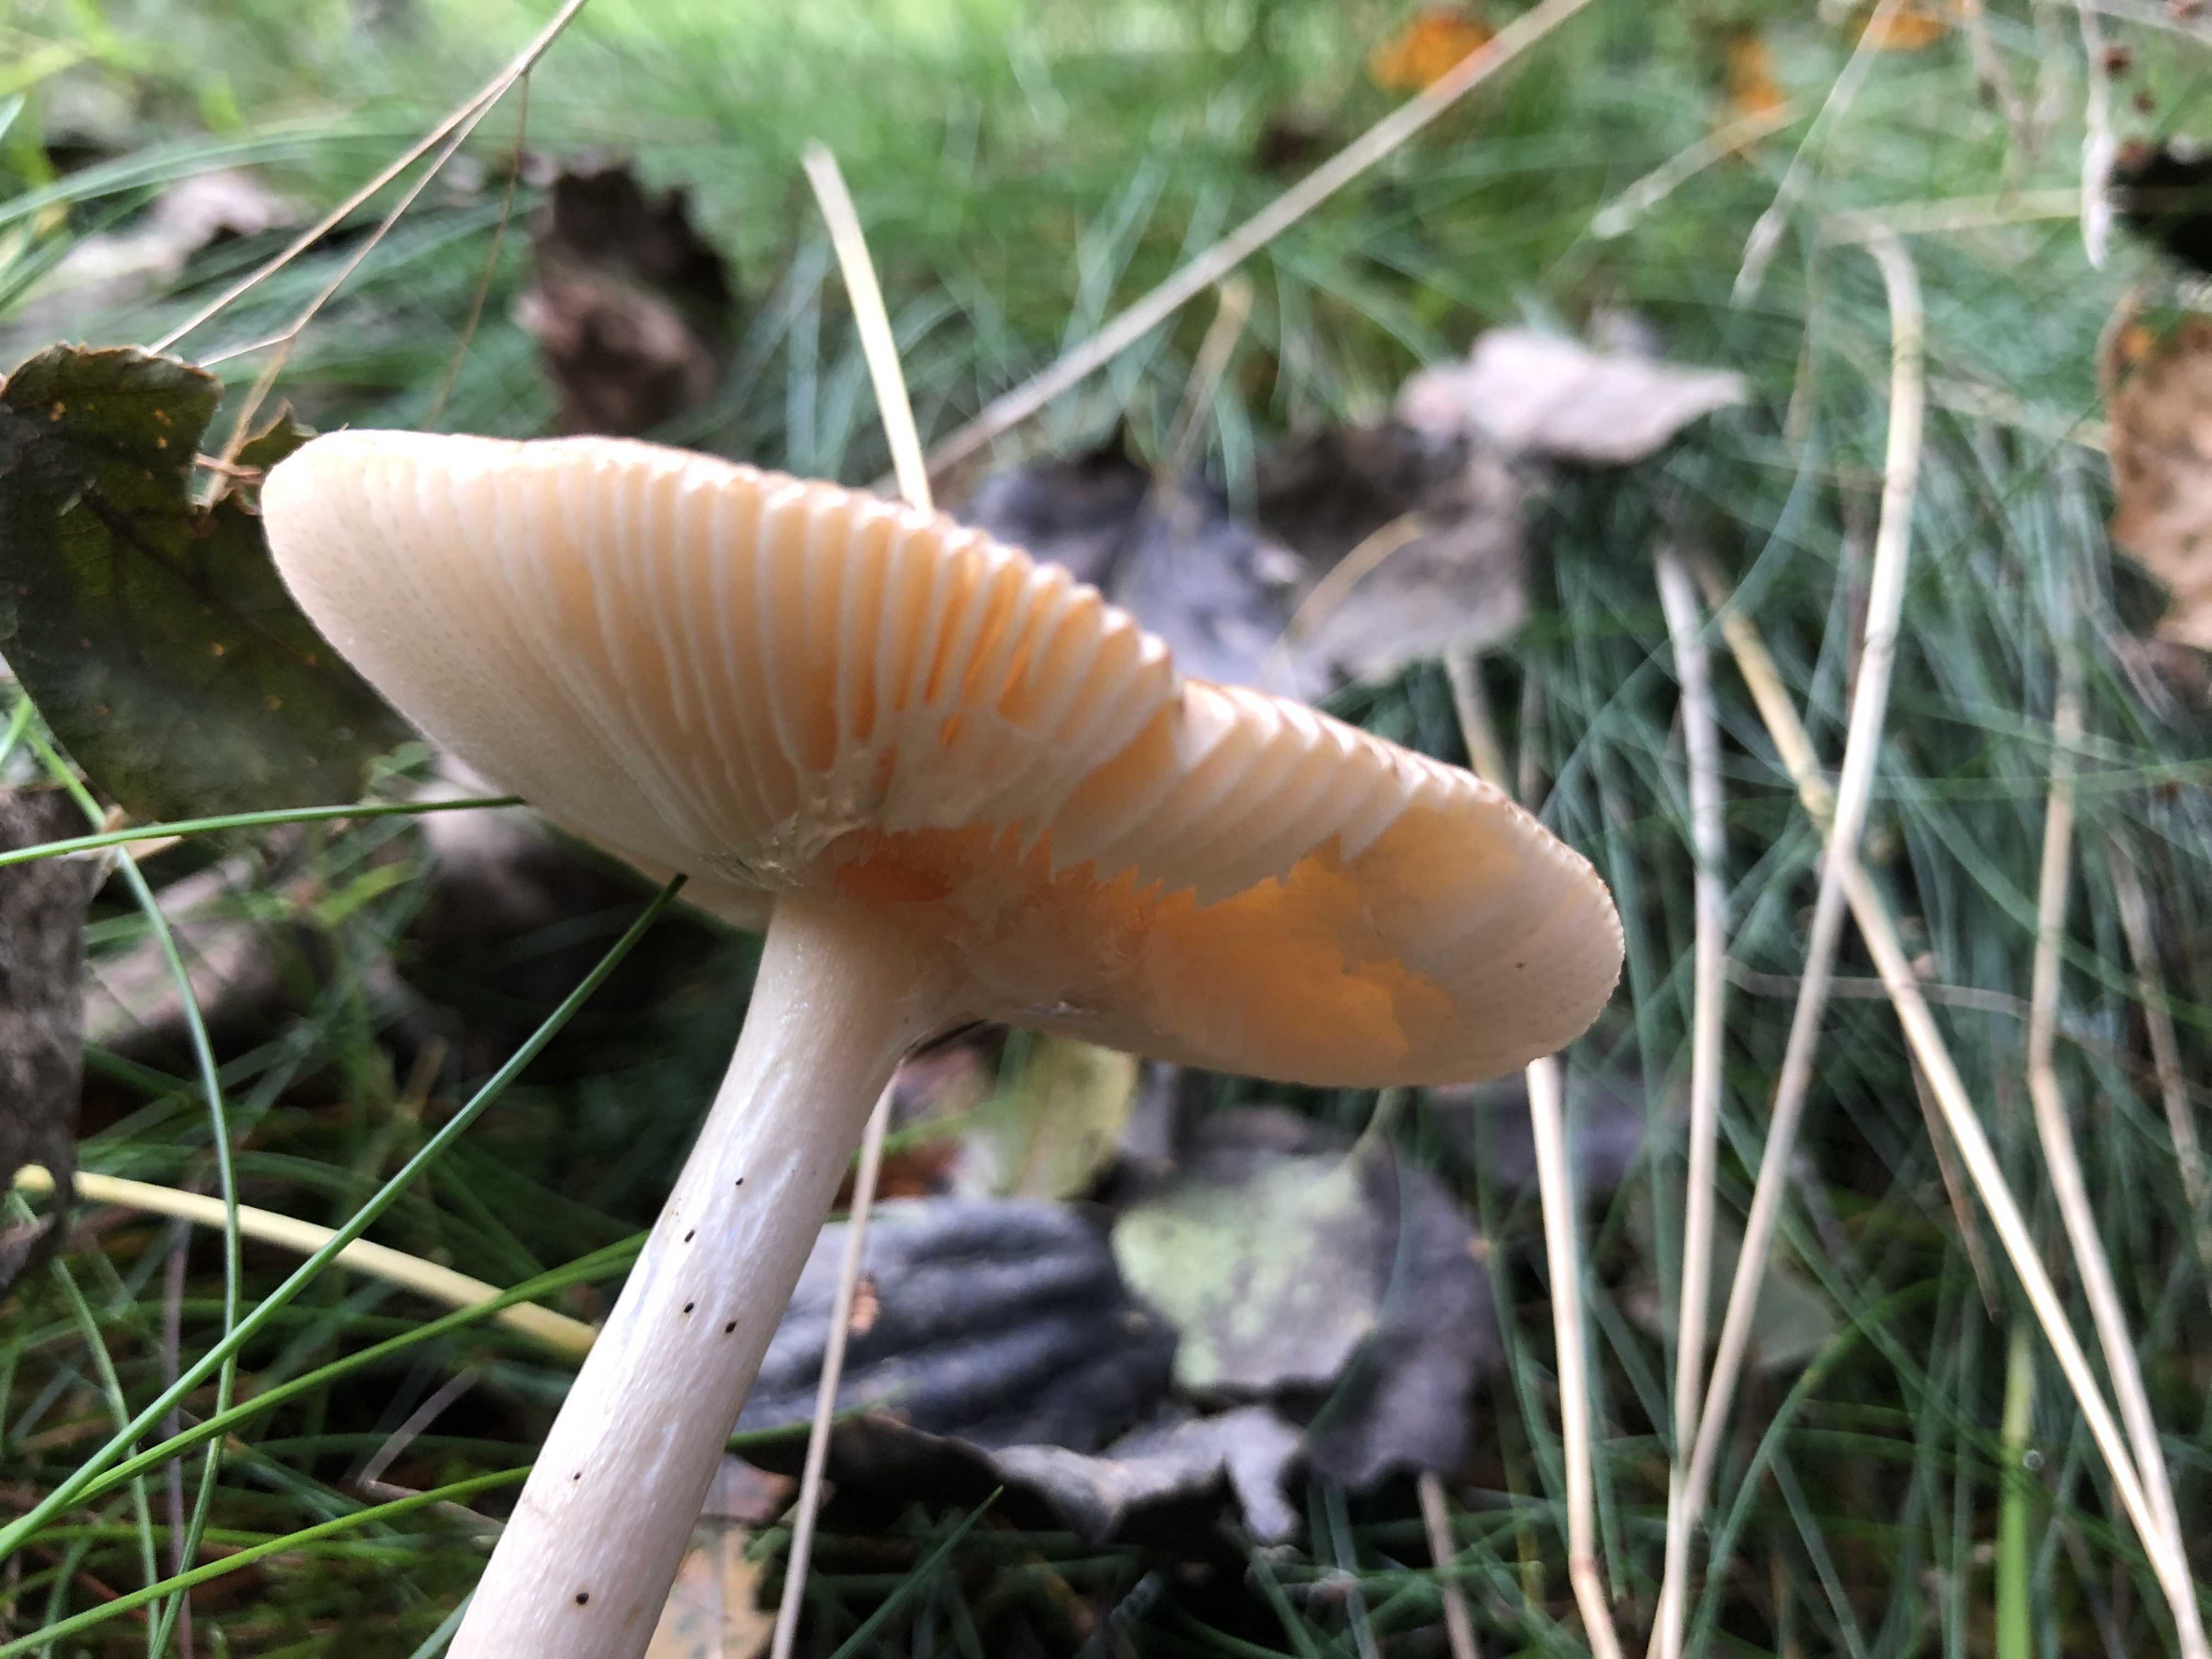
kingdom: Fungi
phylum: Basidiomycota
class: Agaricomycetes
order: Agaricales
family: Amanitaceae
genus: Amanita
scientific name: Amanita fulva
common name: brun kam-fluesvamp
